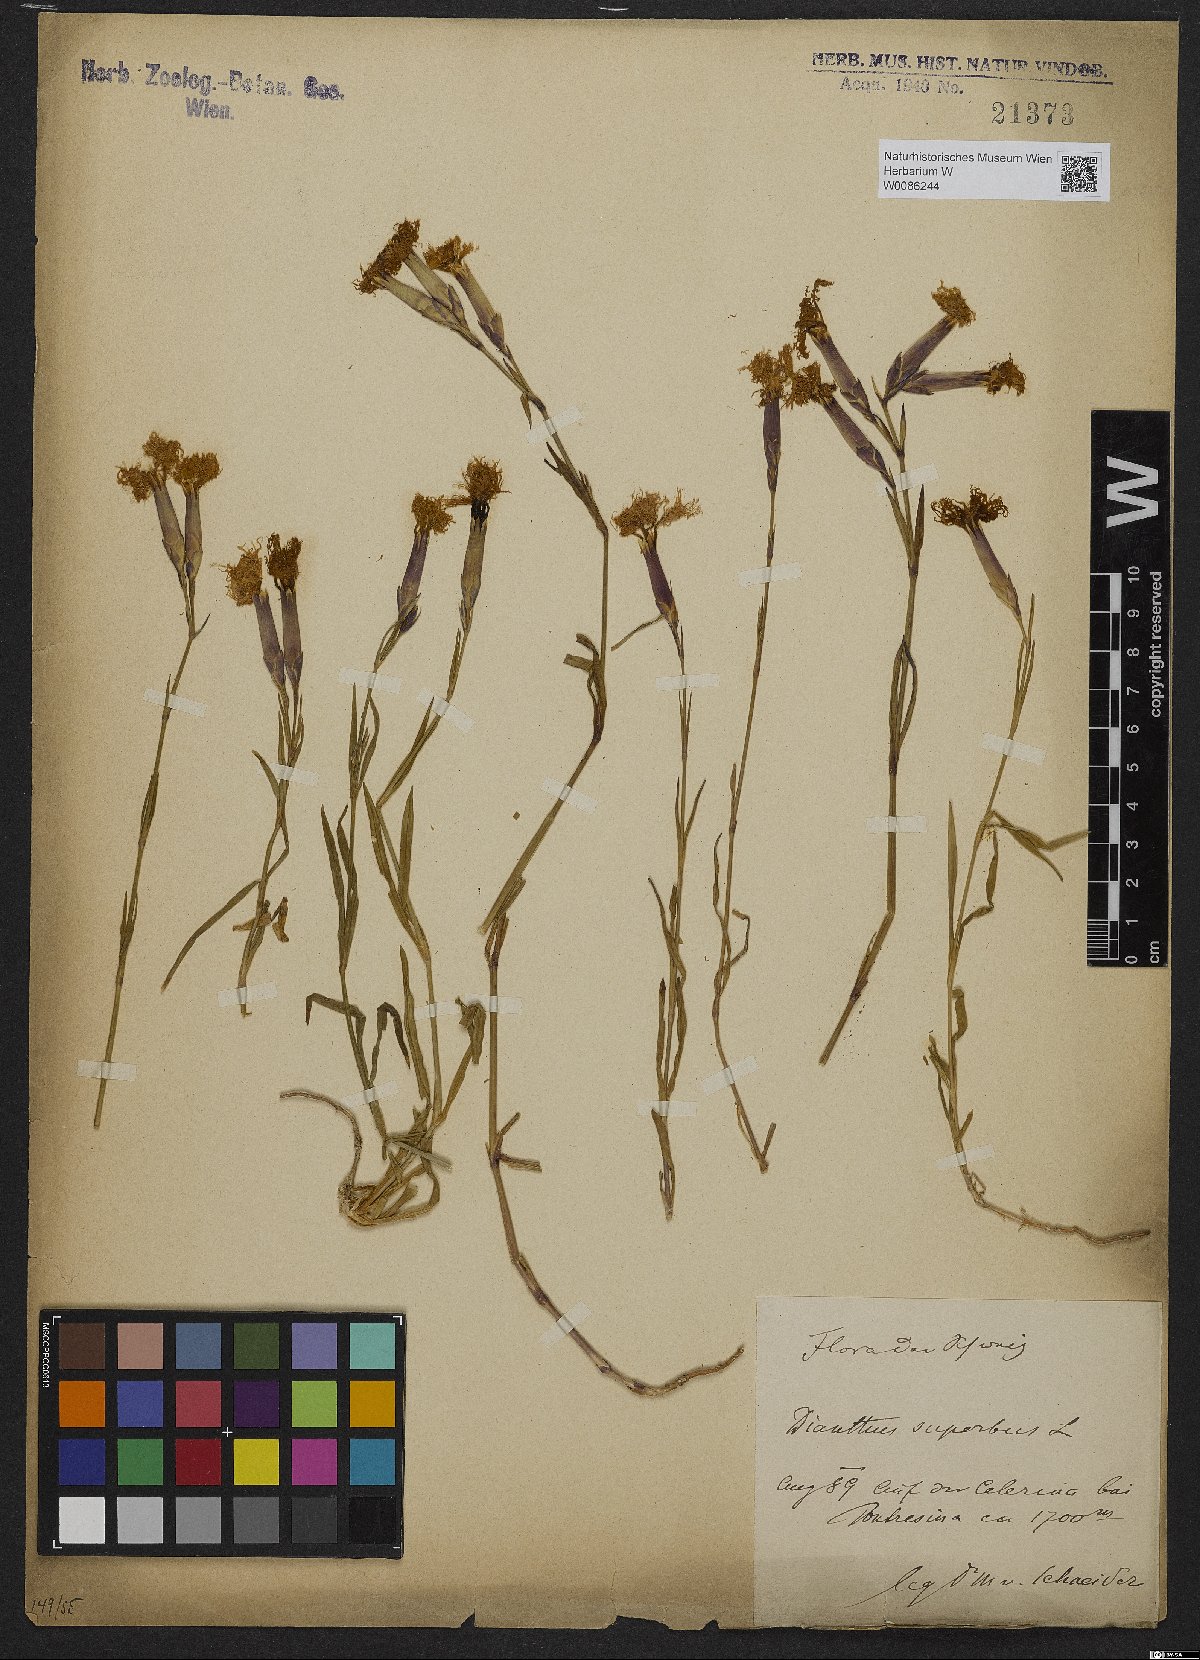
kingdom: Plantae
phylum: Tracheophyta
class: Magnoliopsida
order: Caryophyllales
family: Caryophyllaceae
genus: Dianthus
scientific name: Dianthus superbus
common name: Fringed pink
